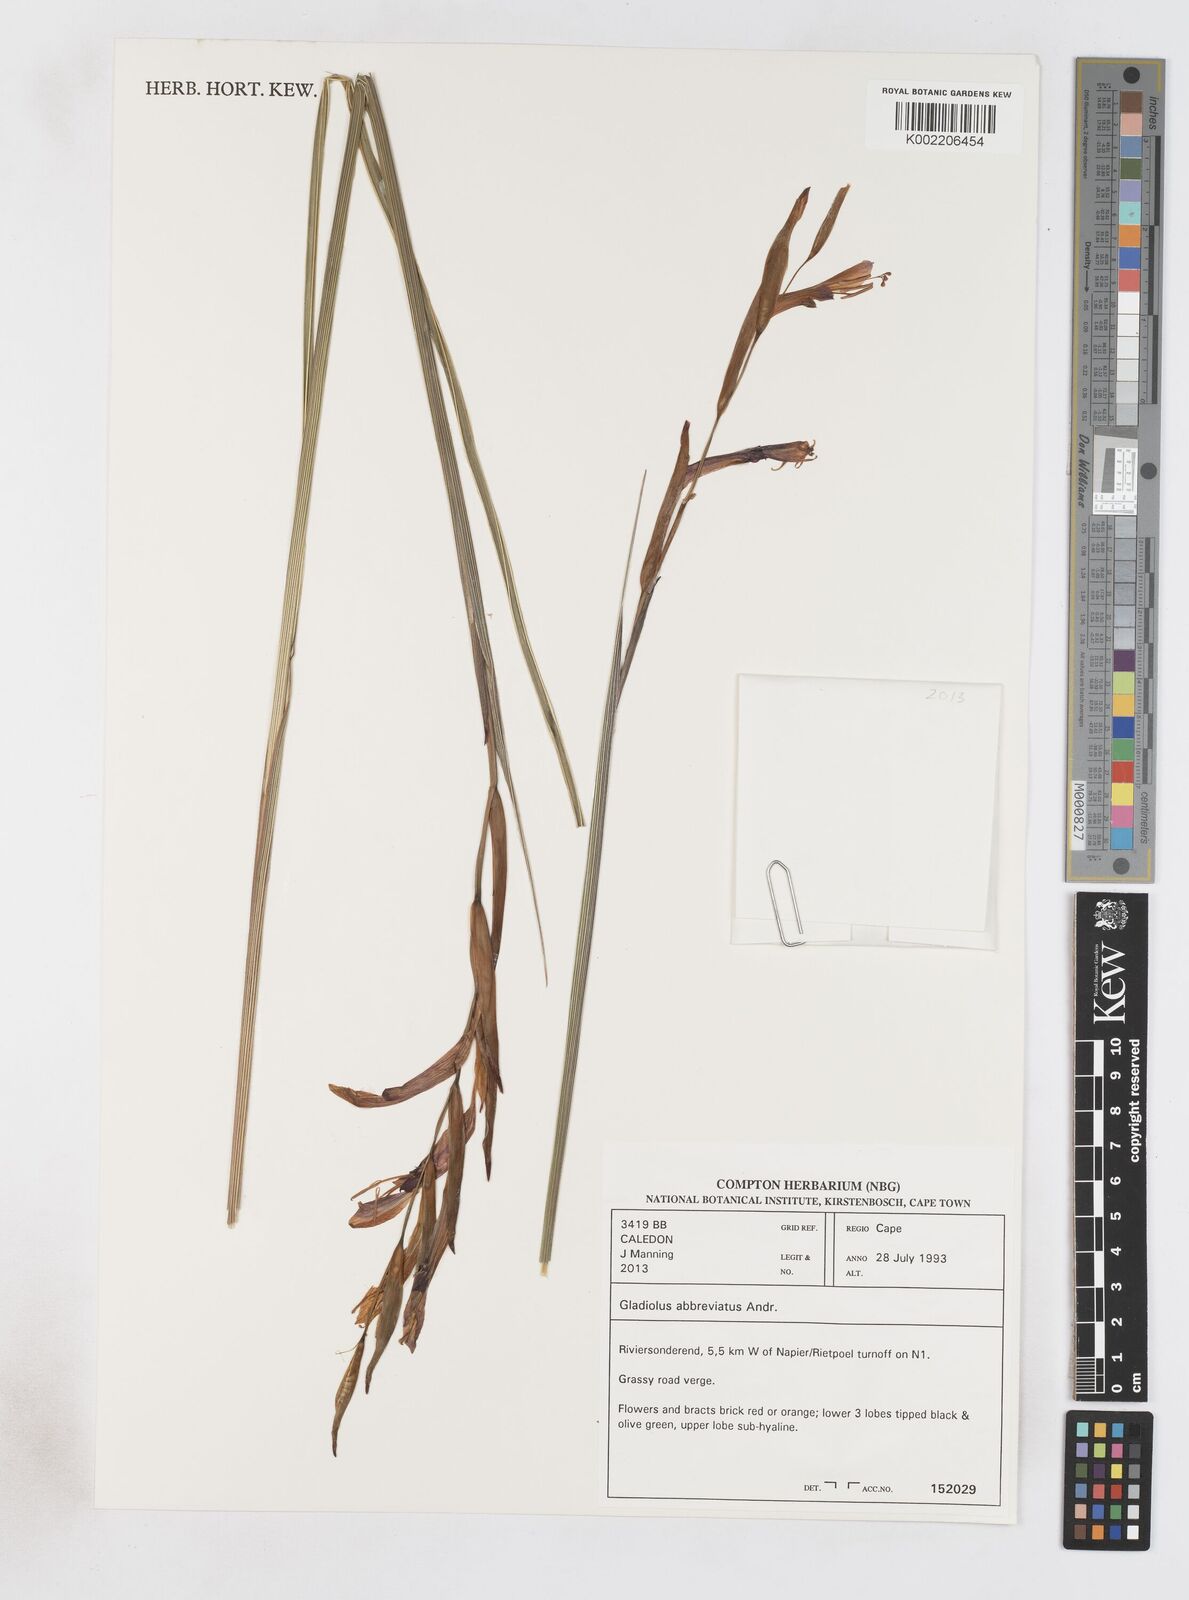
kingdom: Plantae
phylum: Tracheophyta
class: Liliopsida
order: Asparagales
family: Iridaceae
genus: Gladiolus
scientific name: Gladiolus abbreviatus
